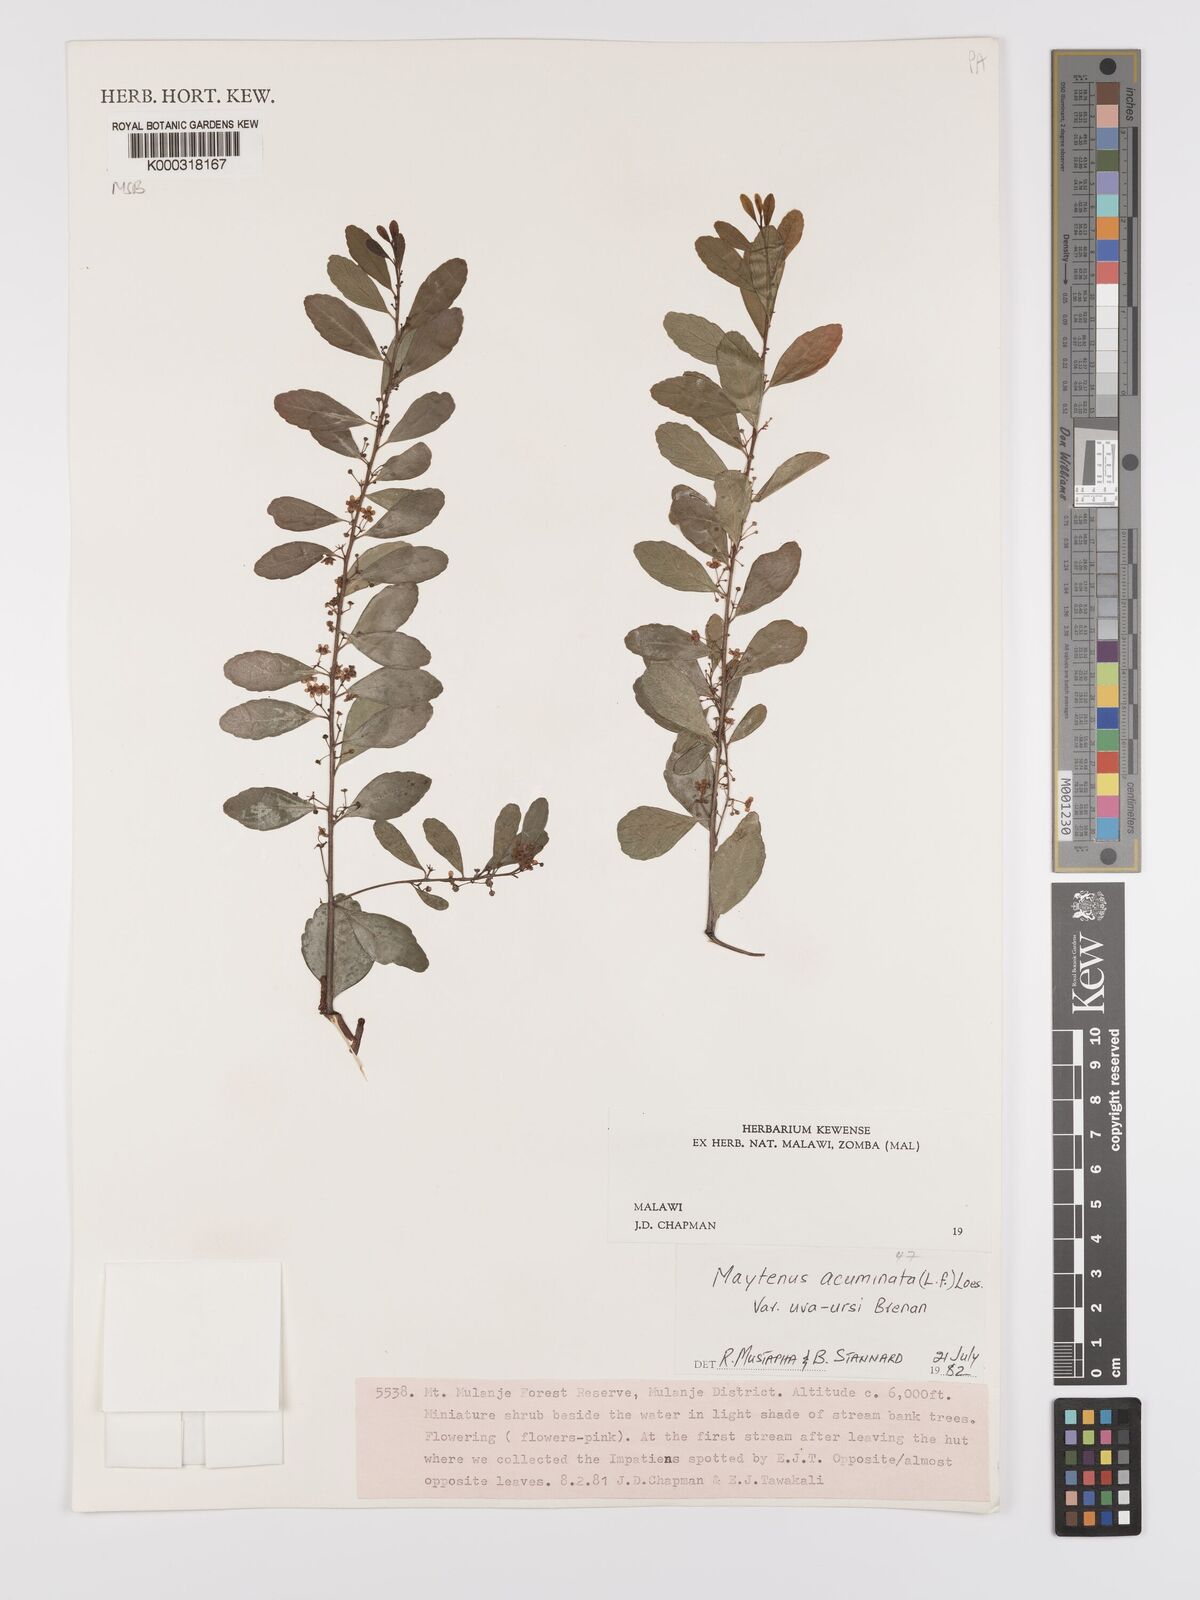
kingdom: Plantae
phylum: Tracheophyta
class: Magnoliopsida
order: Celastrales
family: Celastraceae
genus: Maytenus
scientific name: Maytenus
